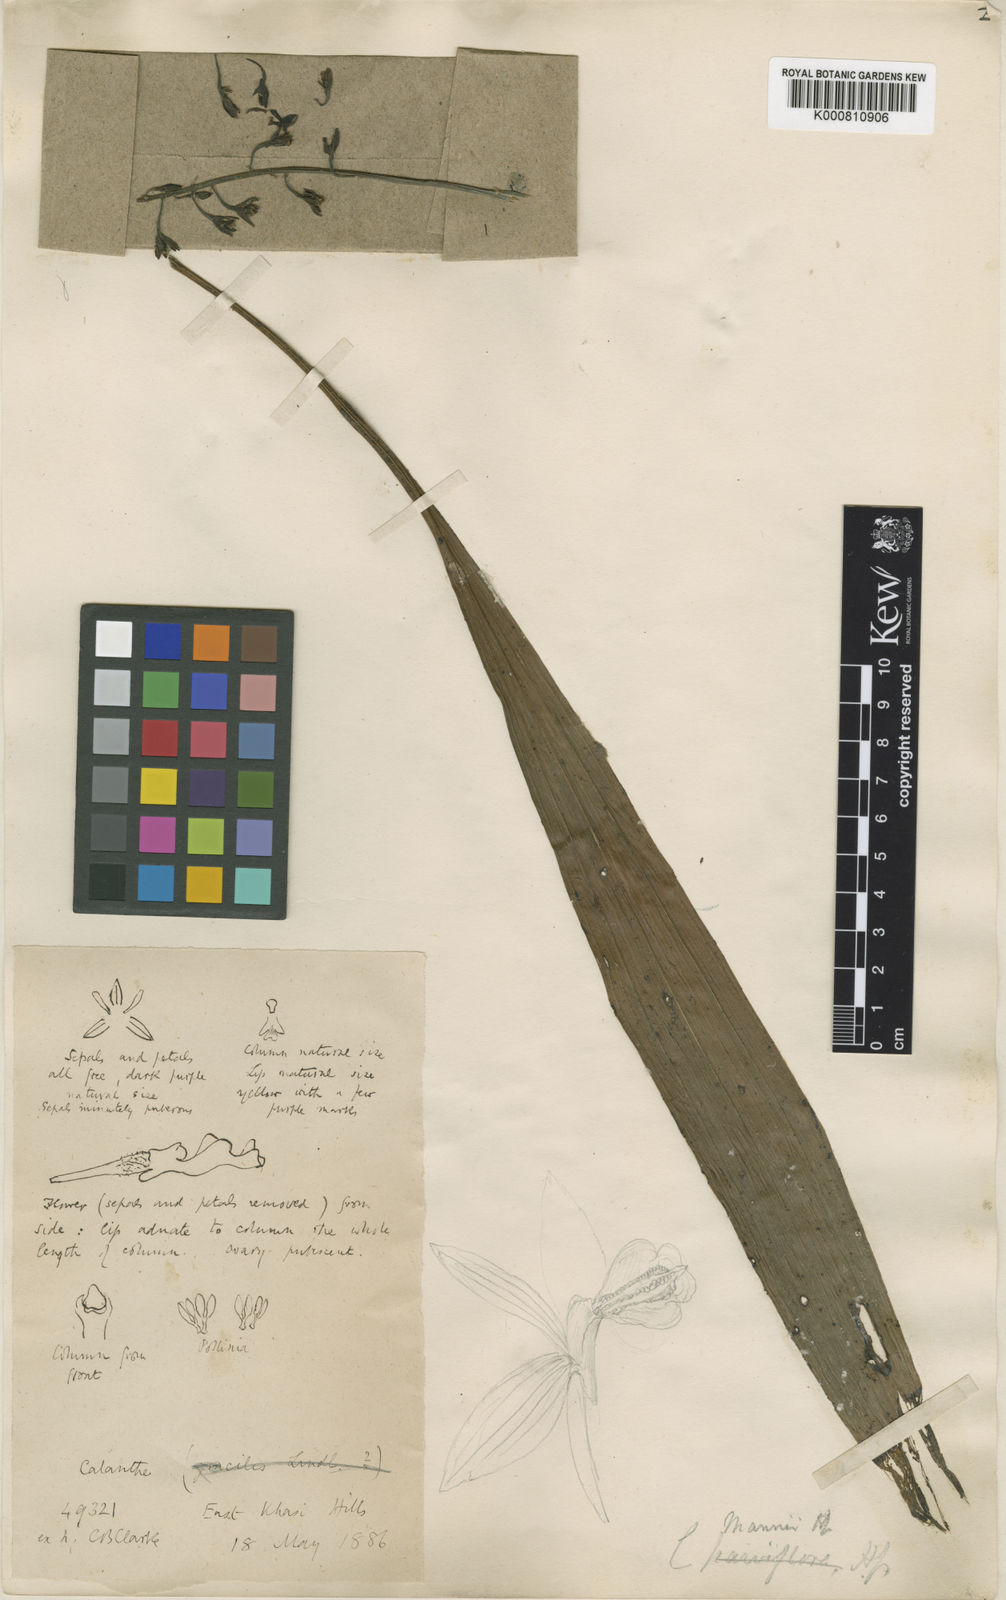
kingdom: Plantae
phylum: Tracheophyta
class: Liliopsida
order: Asparagales
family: Orchidaceae
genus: Calanthe
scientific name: Calanthe mannii
